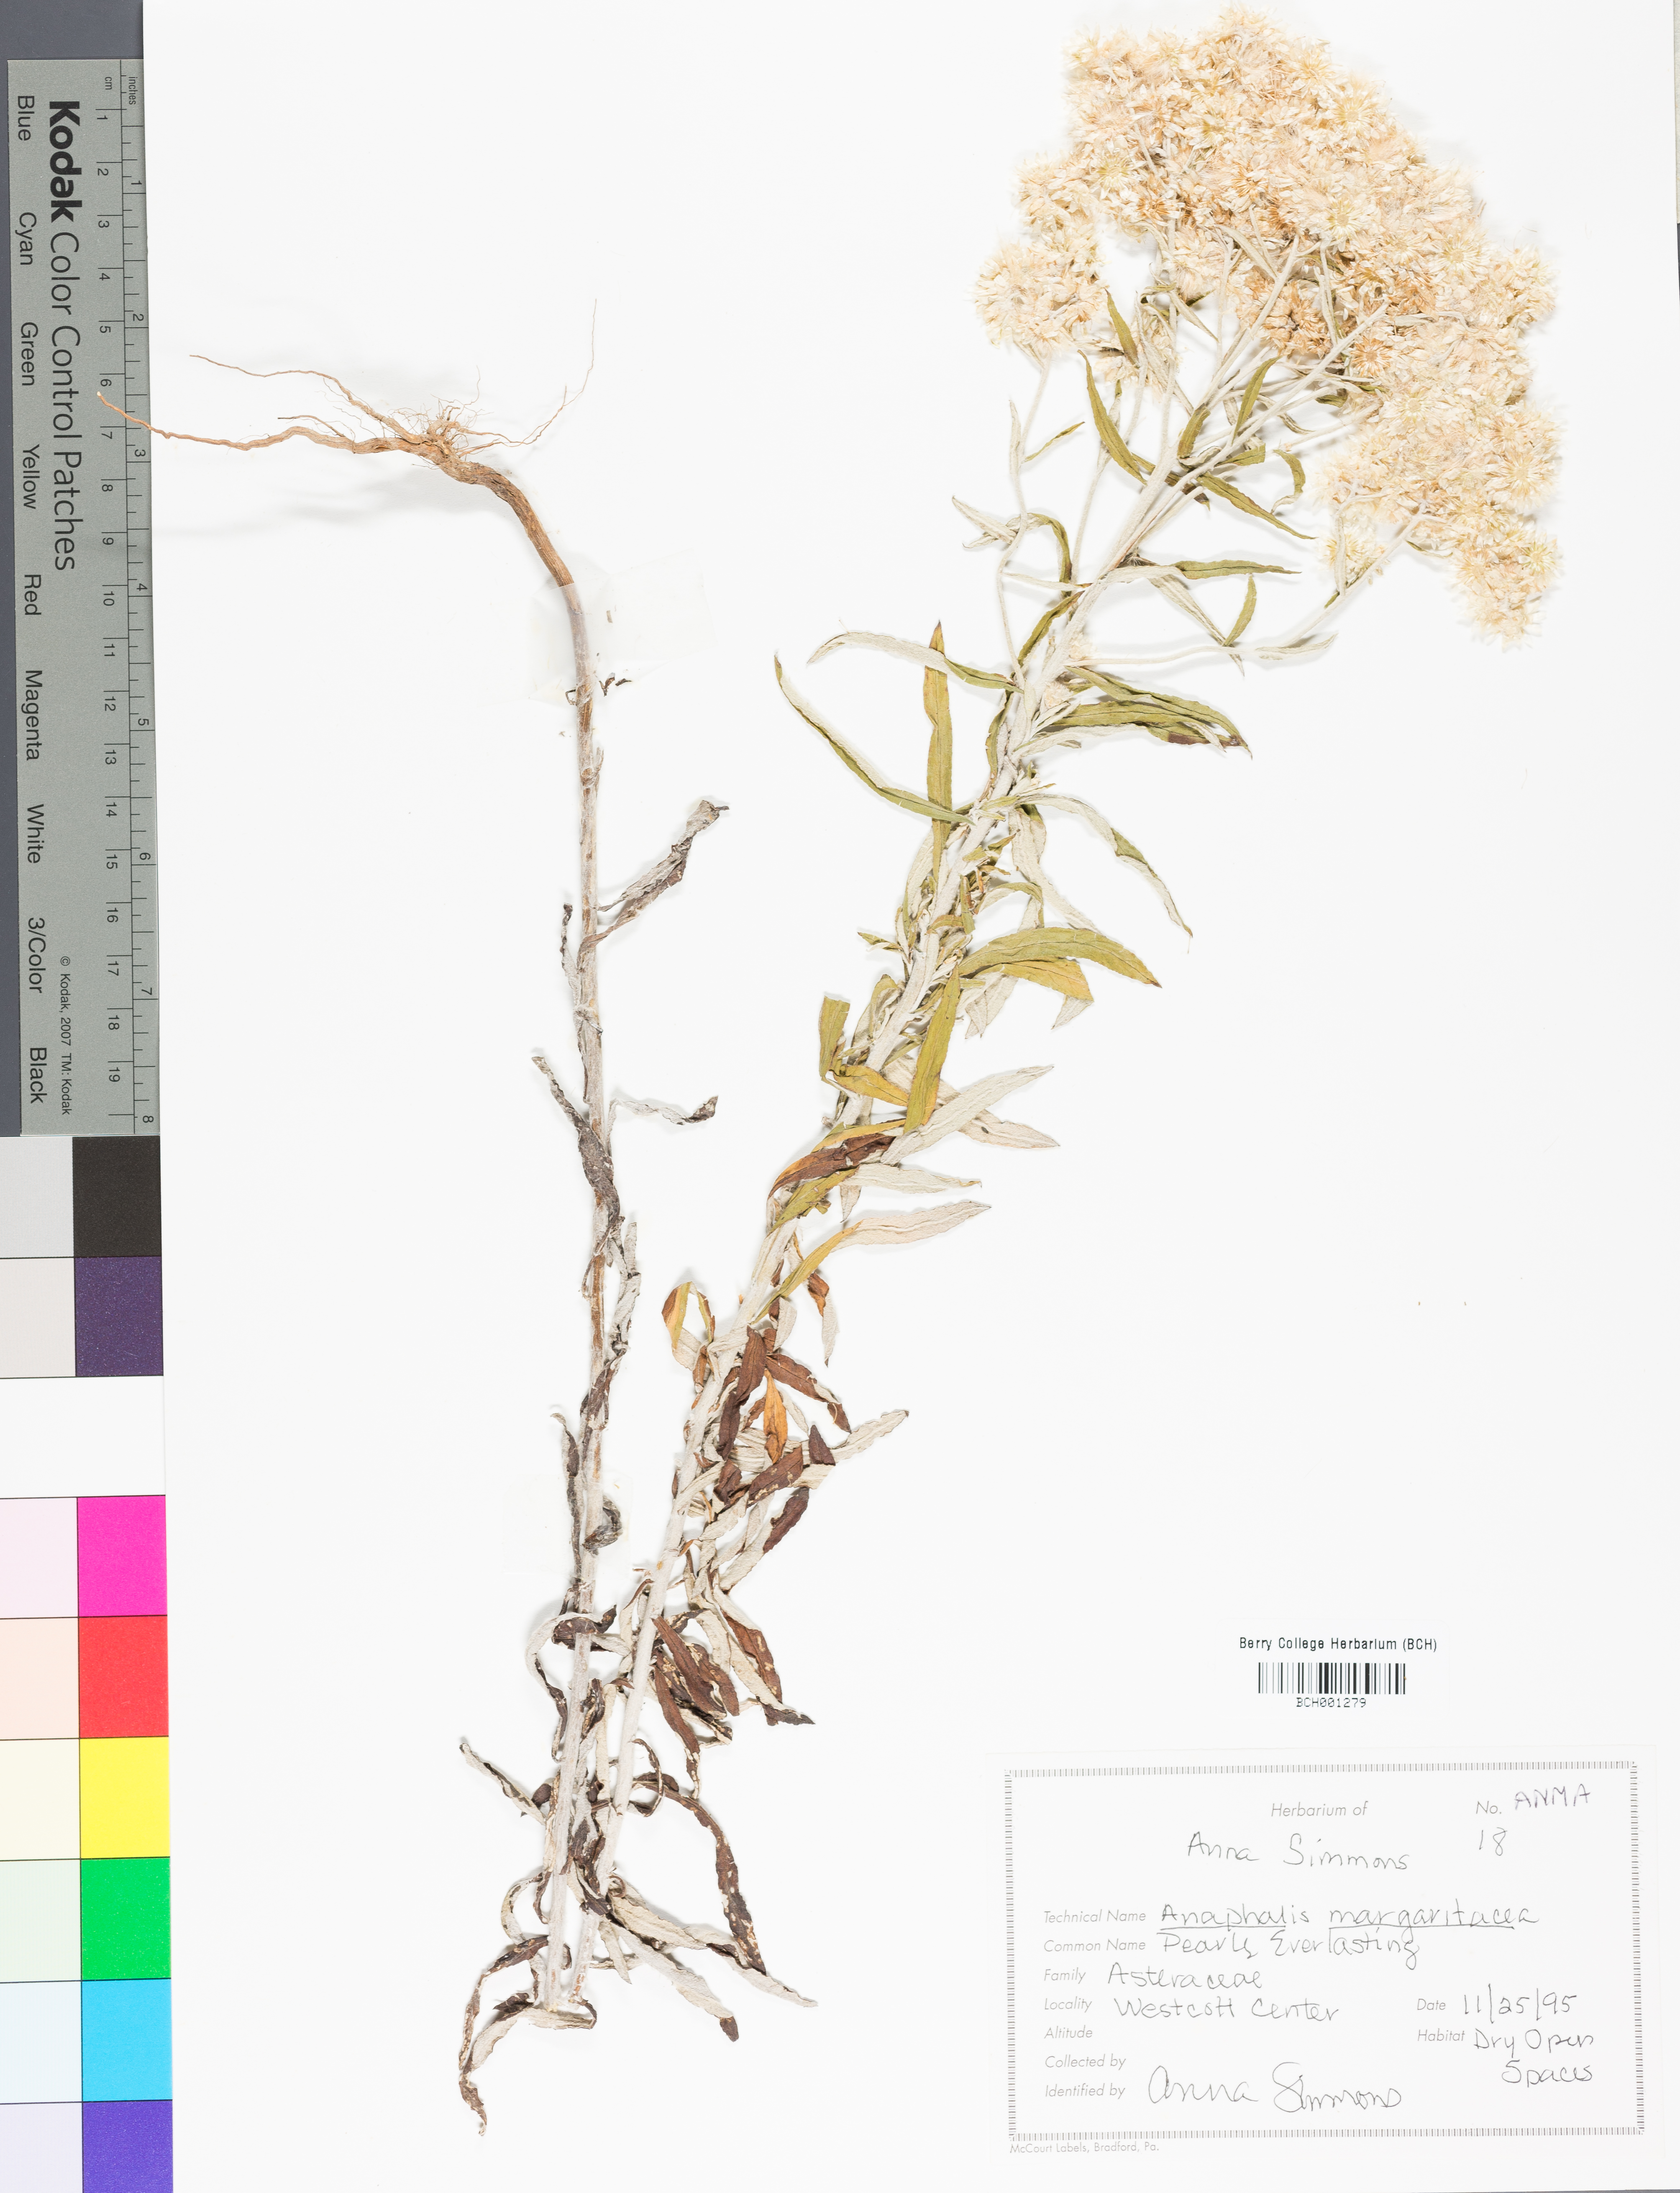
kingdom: Plantae
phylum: Tracheophyta
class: Magnoliopsida
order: Asterales
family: Asteraceae
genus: Antennaria
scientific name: Antennaria solitaria
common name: Single-head pussytoes
